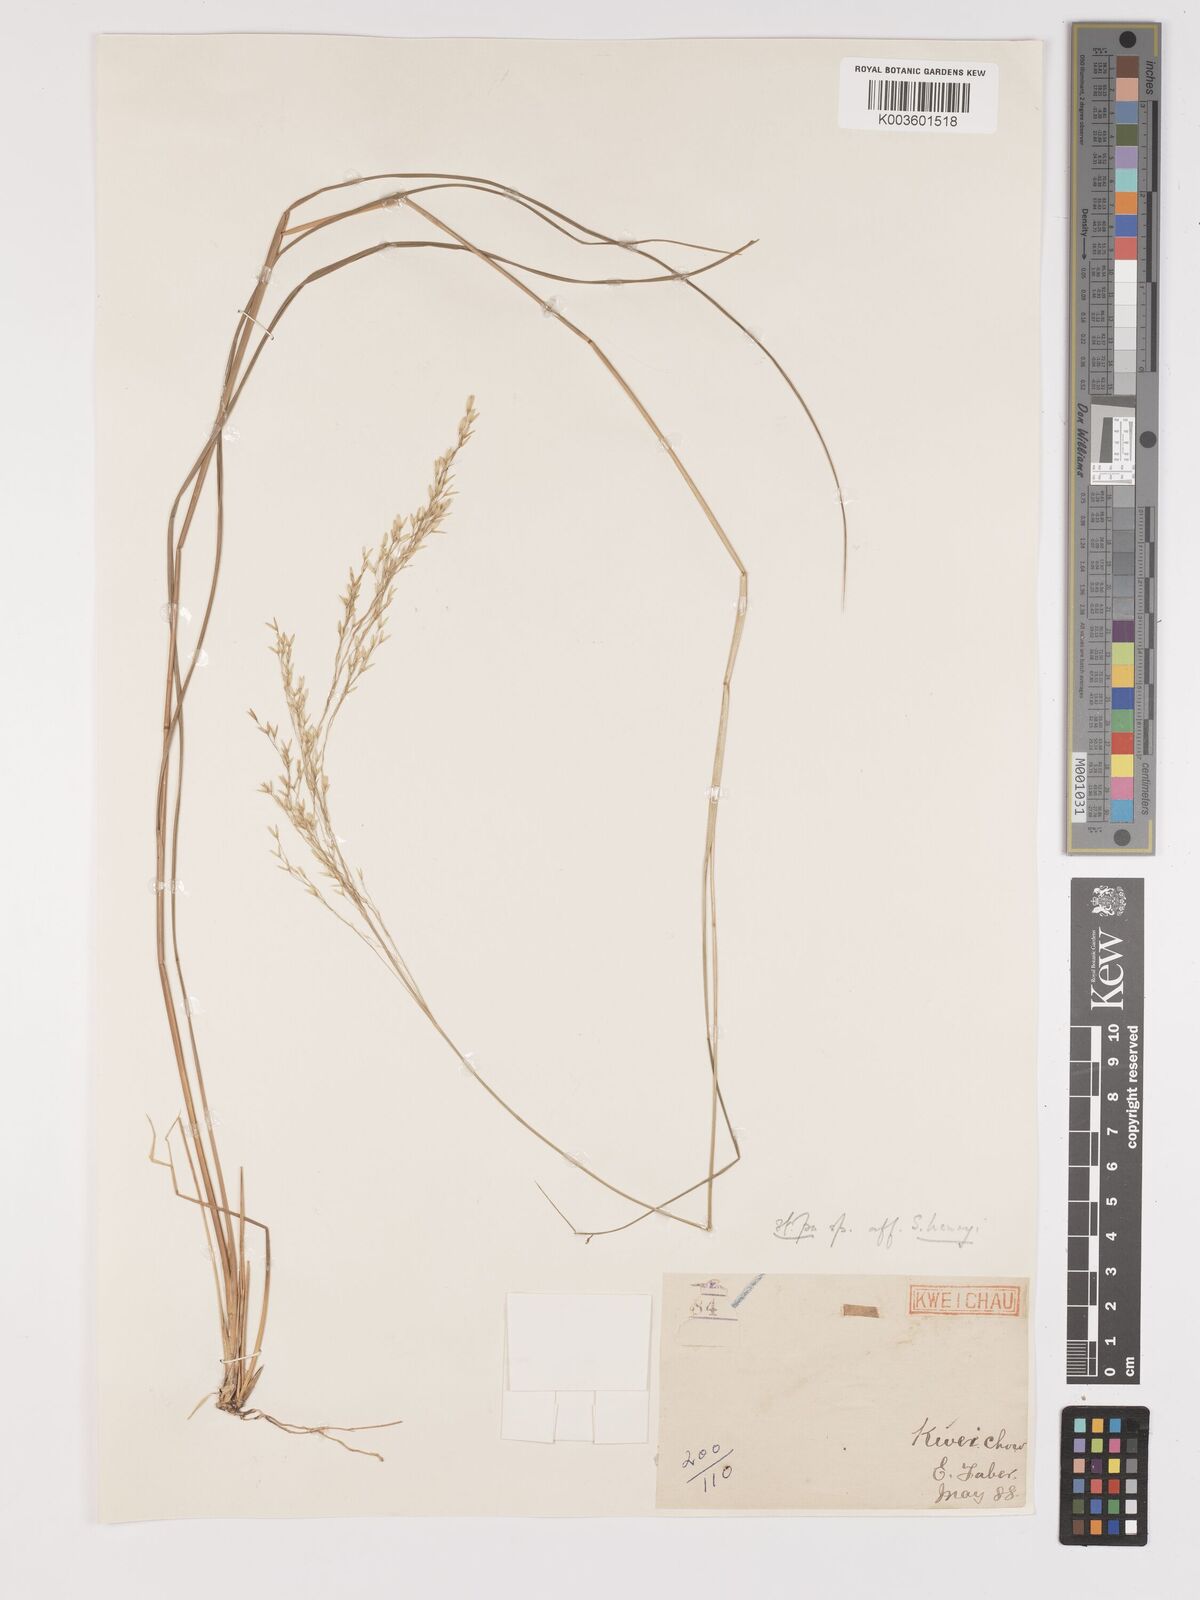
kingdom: Plantae
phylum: Tracheophyta
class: Liliopsida
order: Poales
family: Poaceae
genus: Stipa
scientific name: Stipa
